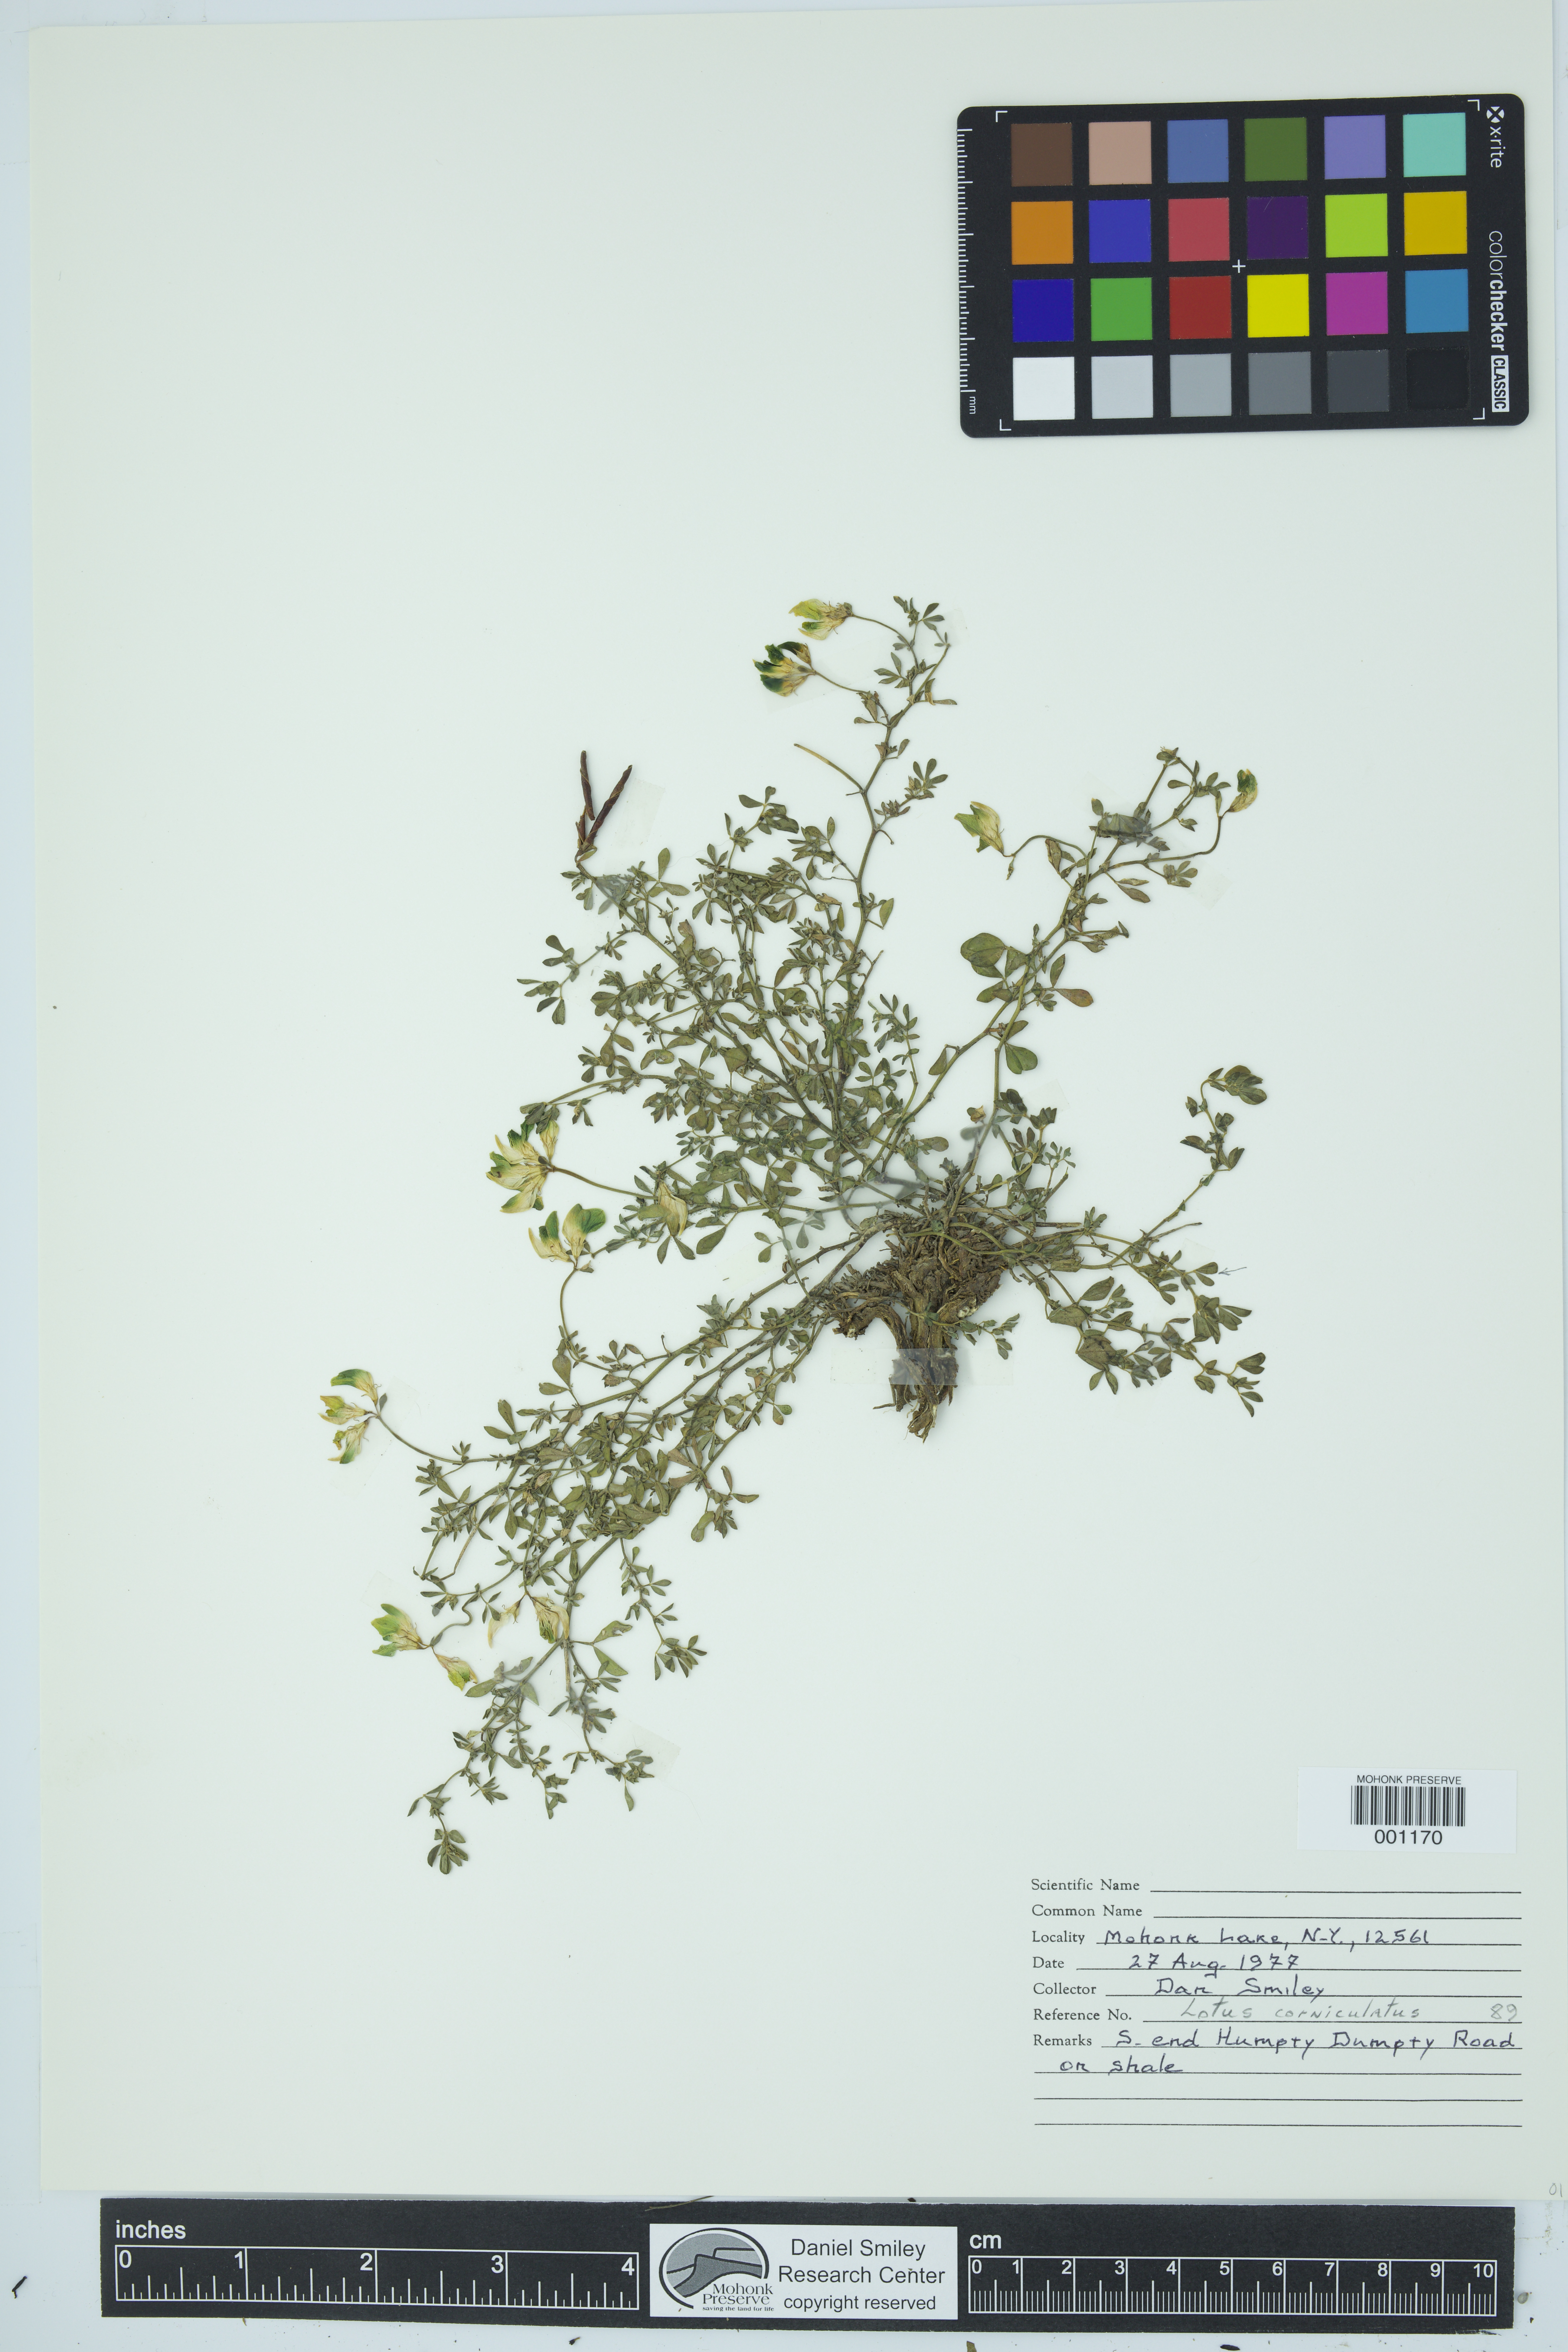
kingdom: Plantae
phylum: Tracheophyta
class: Magnoliopsida
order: Fabales
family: Fabaceae
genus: Lotus
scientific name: Lotus corniculatus
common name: Common bird's-foot-trefoil
